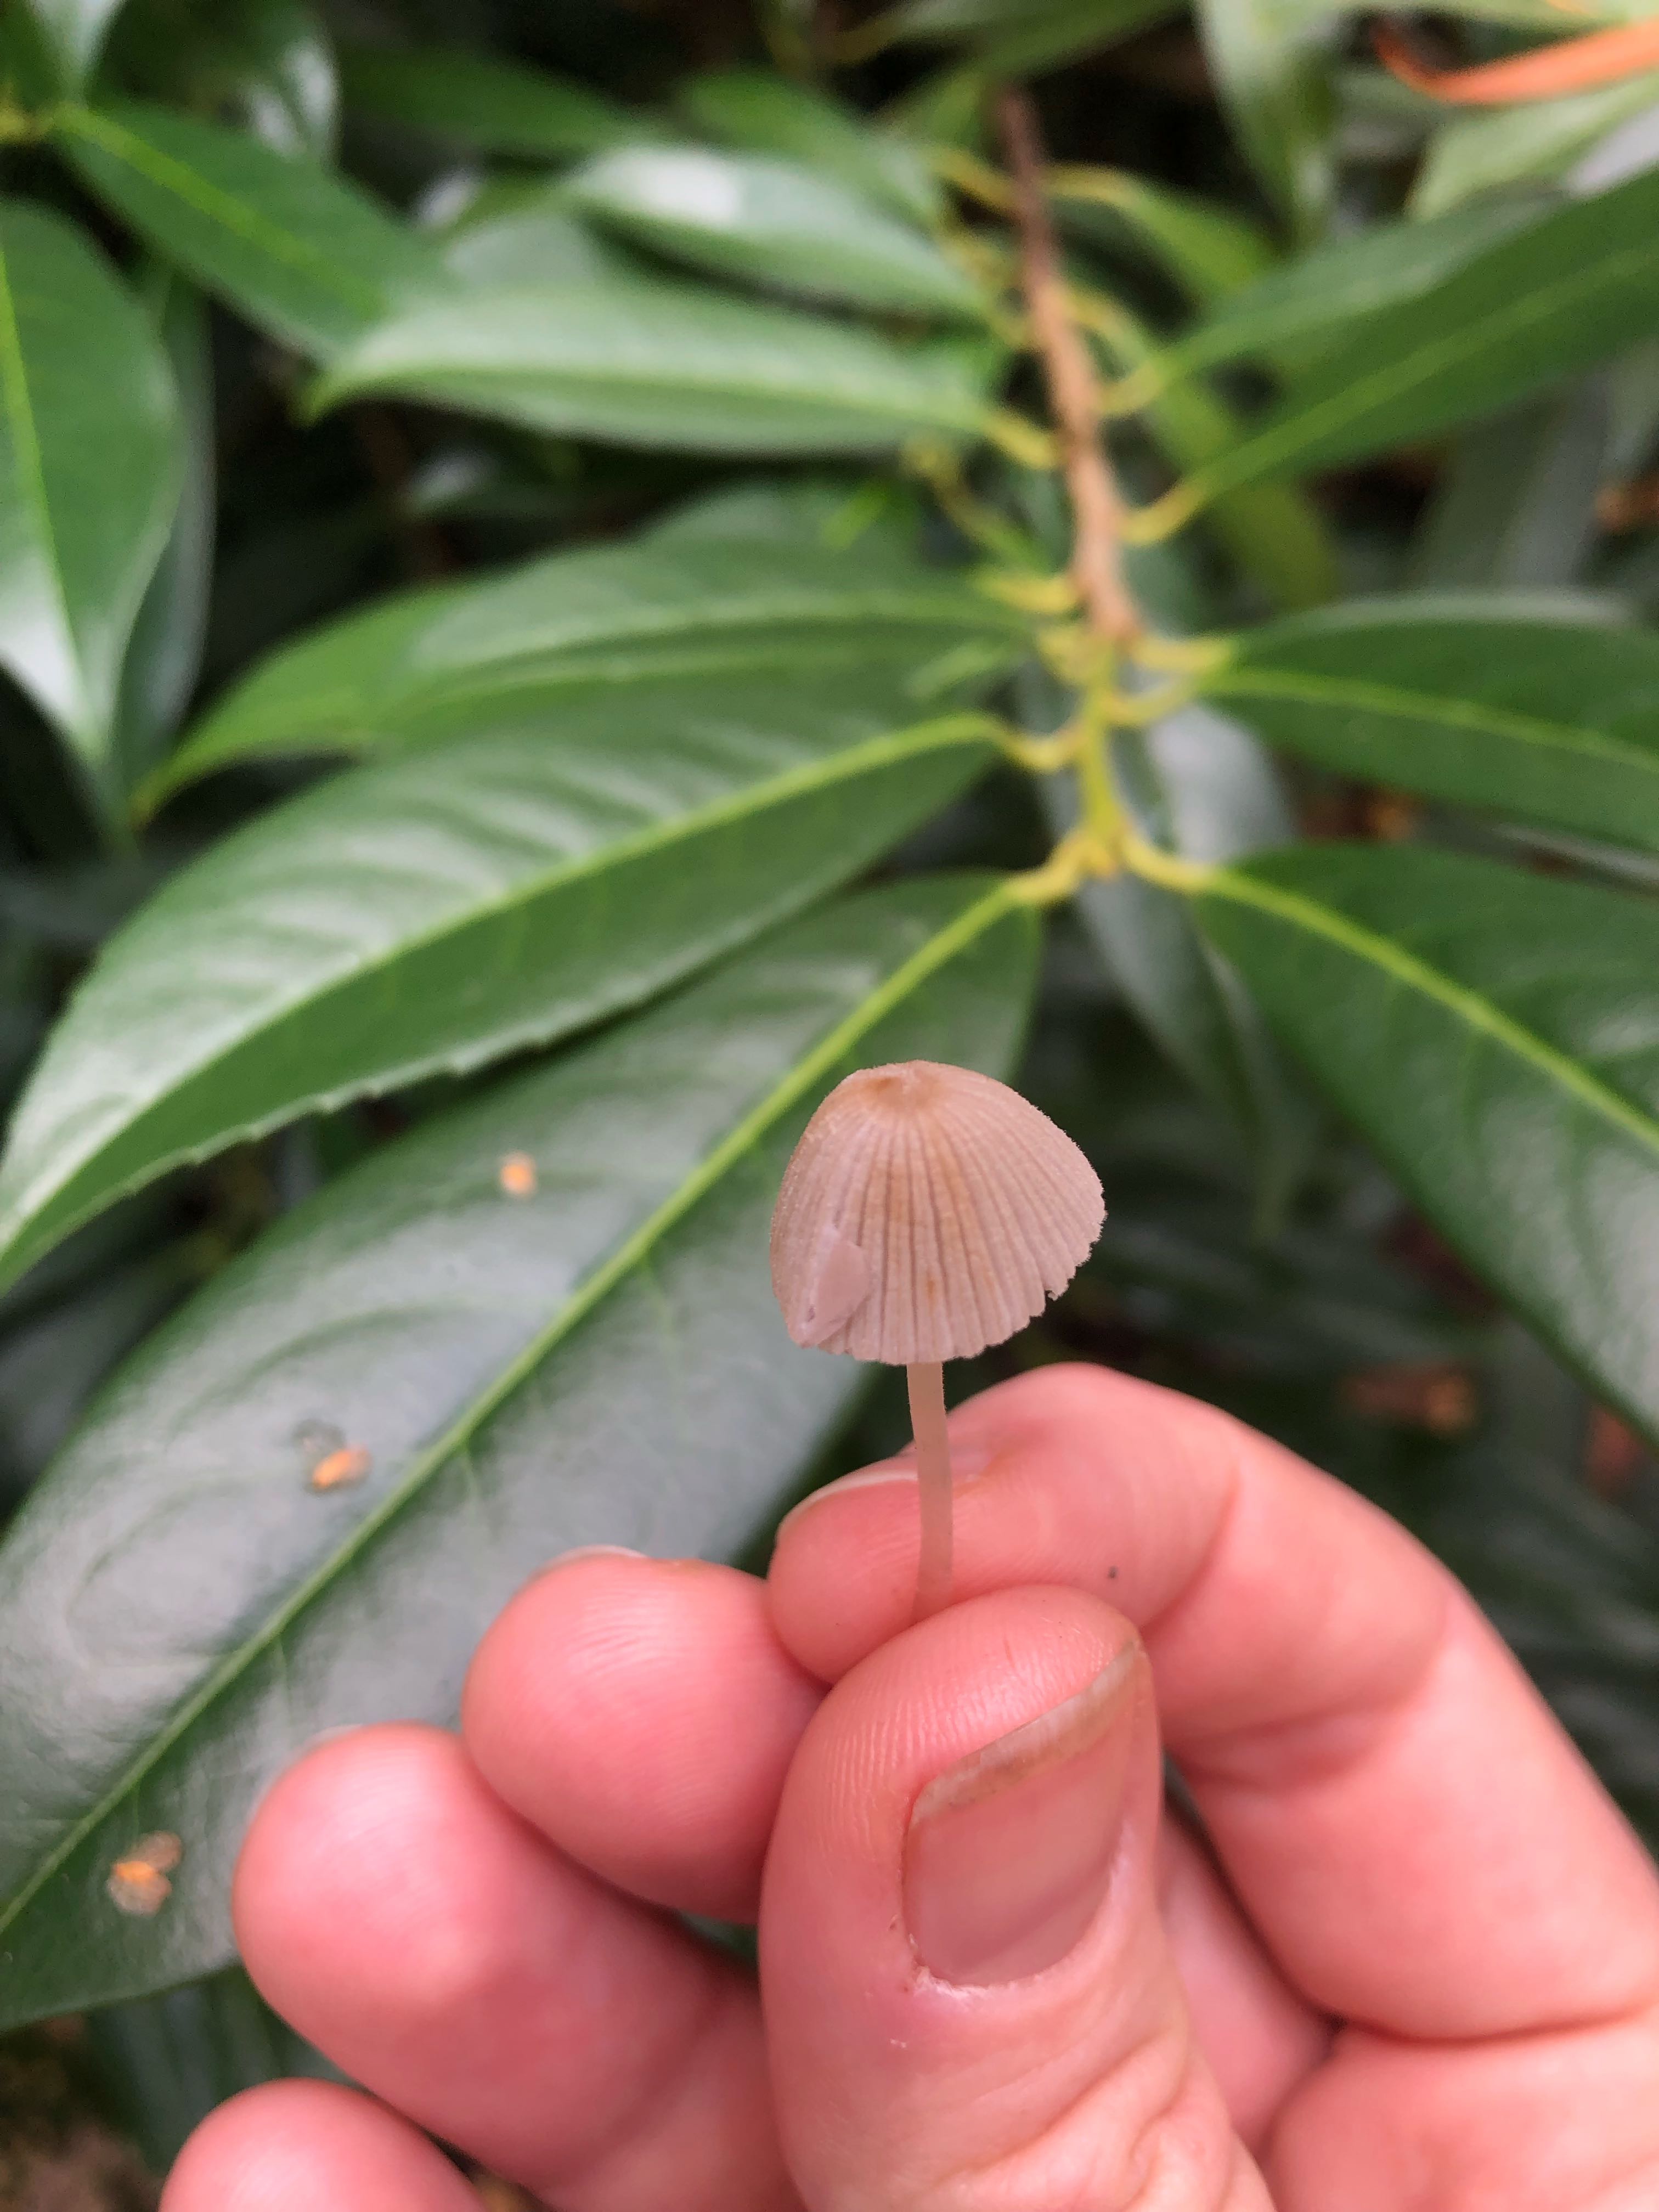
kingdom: Fungi
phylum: Basidiomycota
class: Agaricomycetes
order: Agaricales
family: Psathyrellaceae
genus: Coprinellus
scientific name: Coprinellus disseminatus
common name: bredsået blækhat
